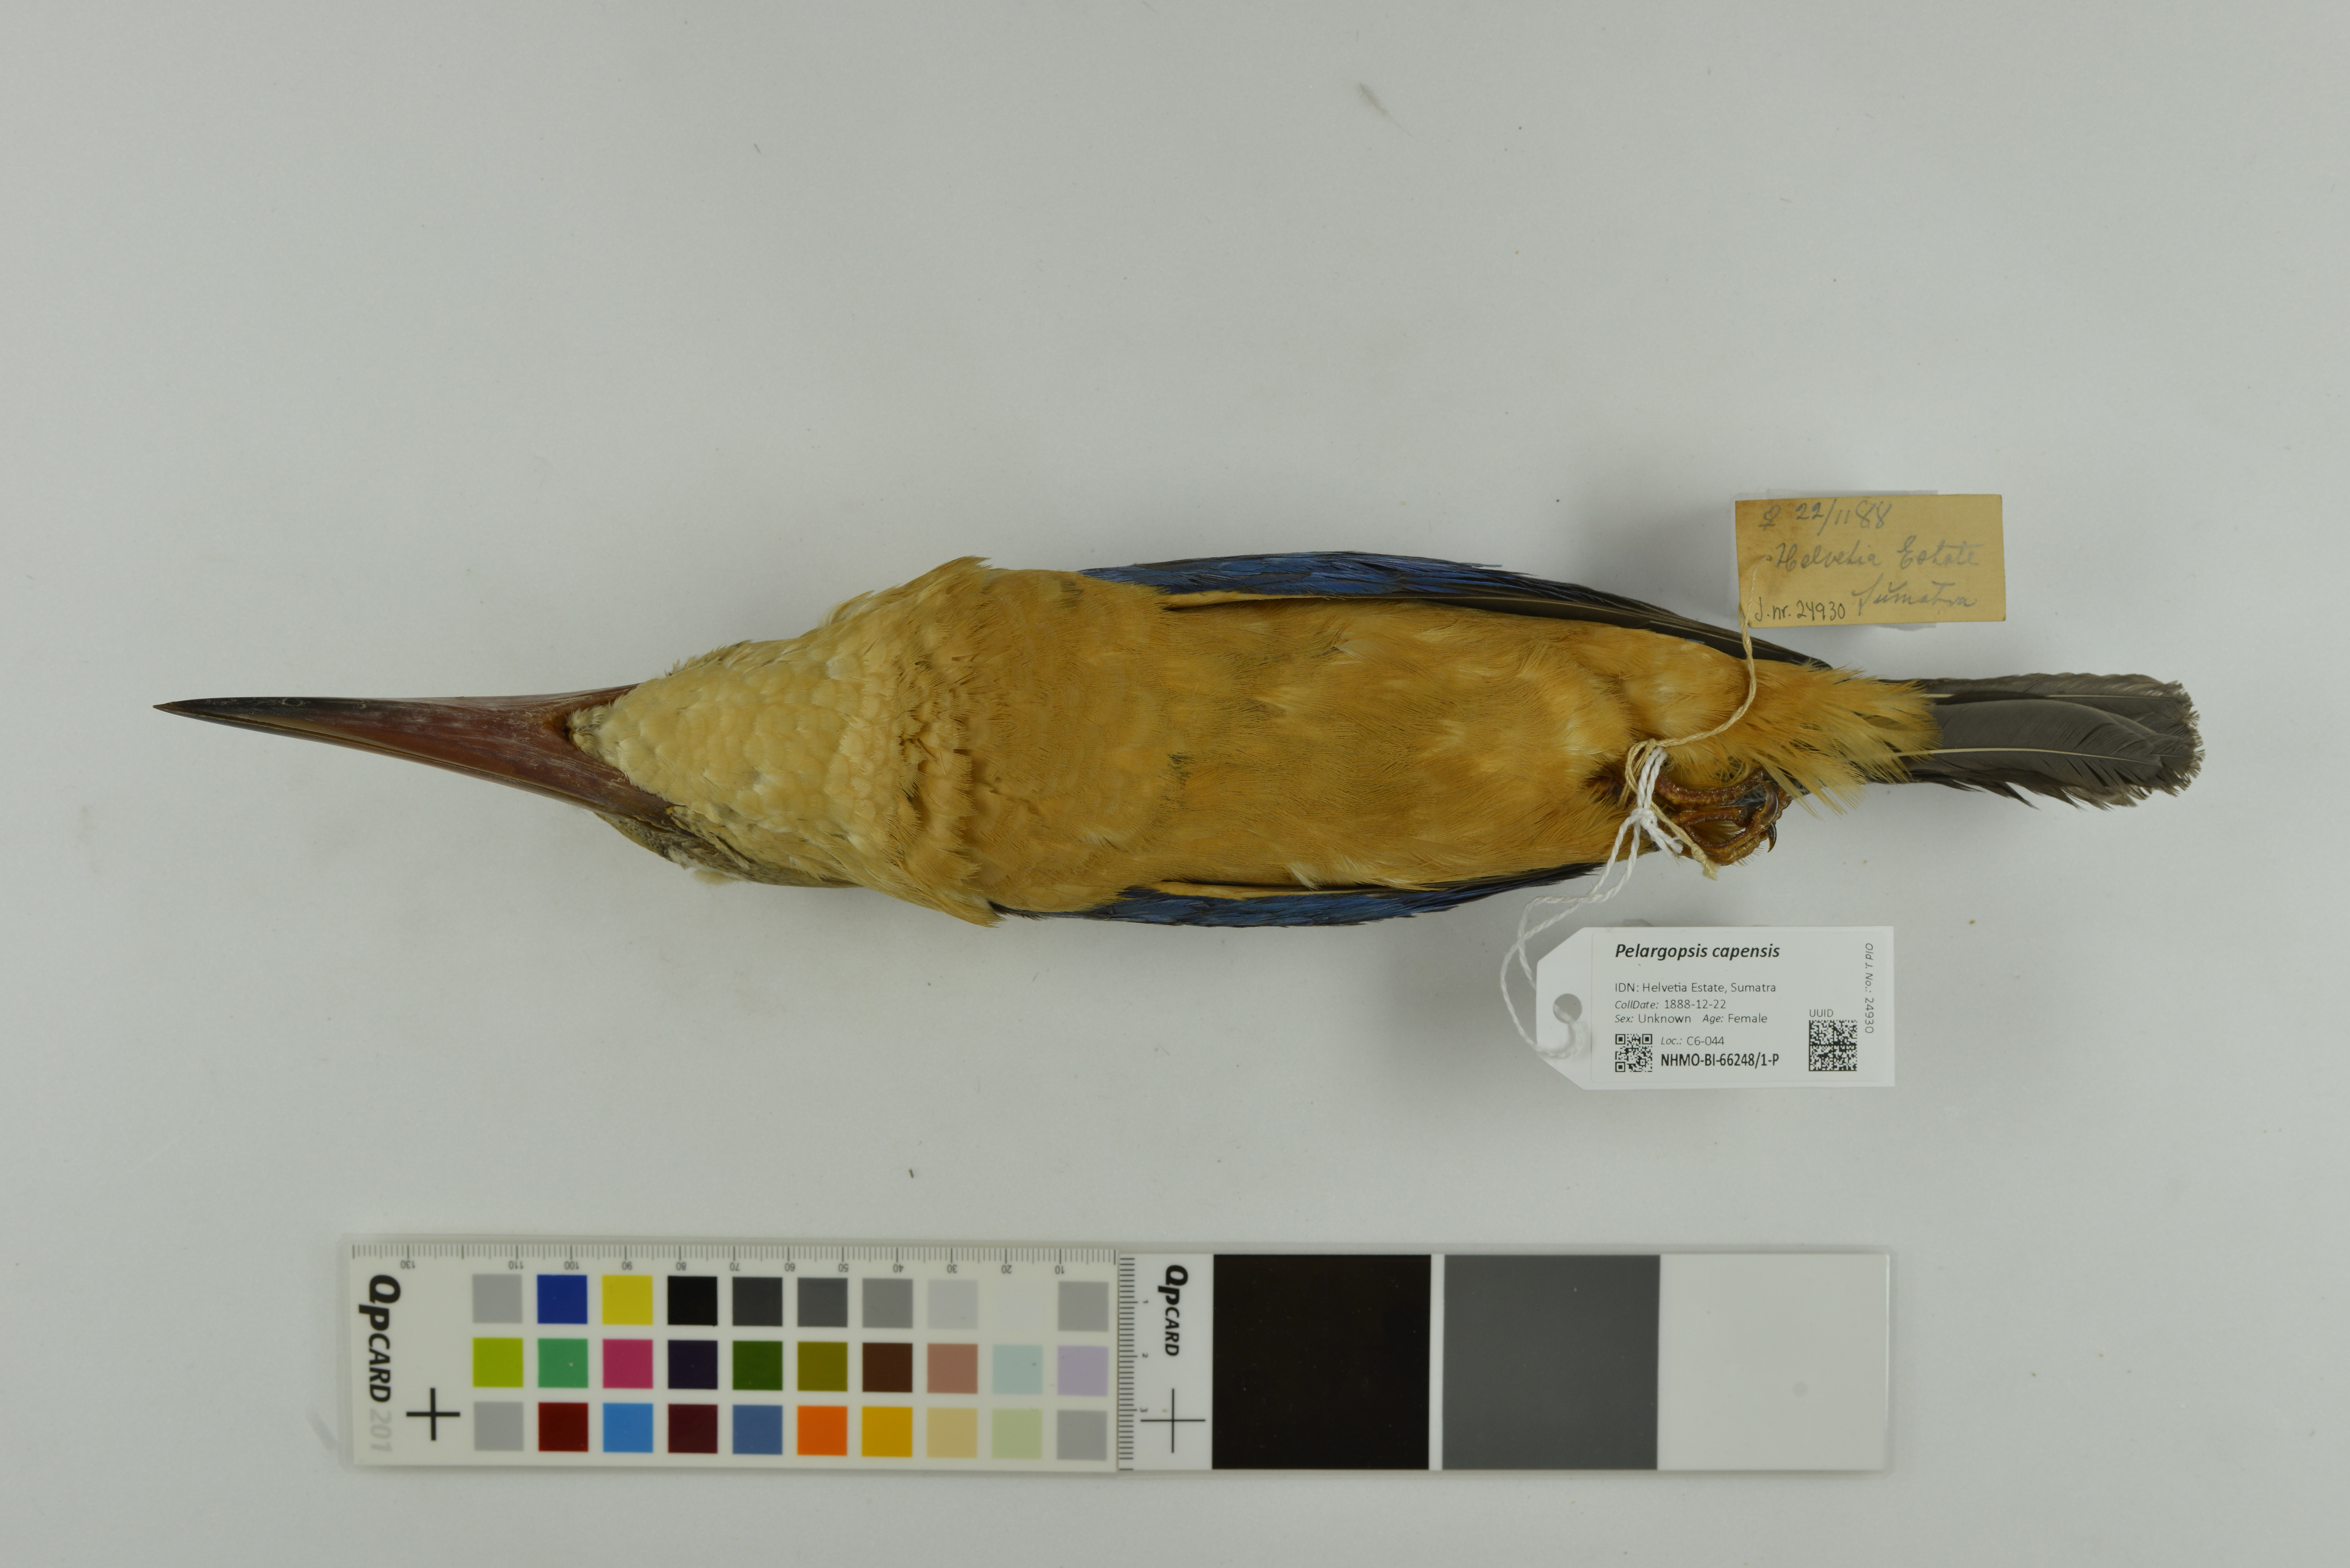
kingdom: Animalia
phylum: Chordata
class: Aves
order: Coraciiformes
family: Alcedinidae
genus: Pelargopsis
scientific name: Pelargopsis capensis
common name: Stork-billed kingfisher
